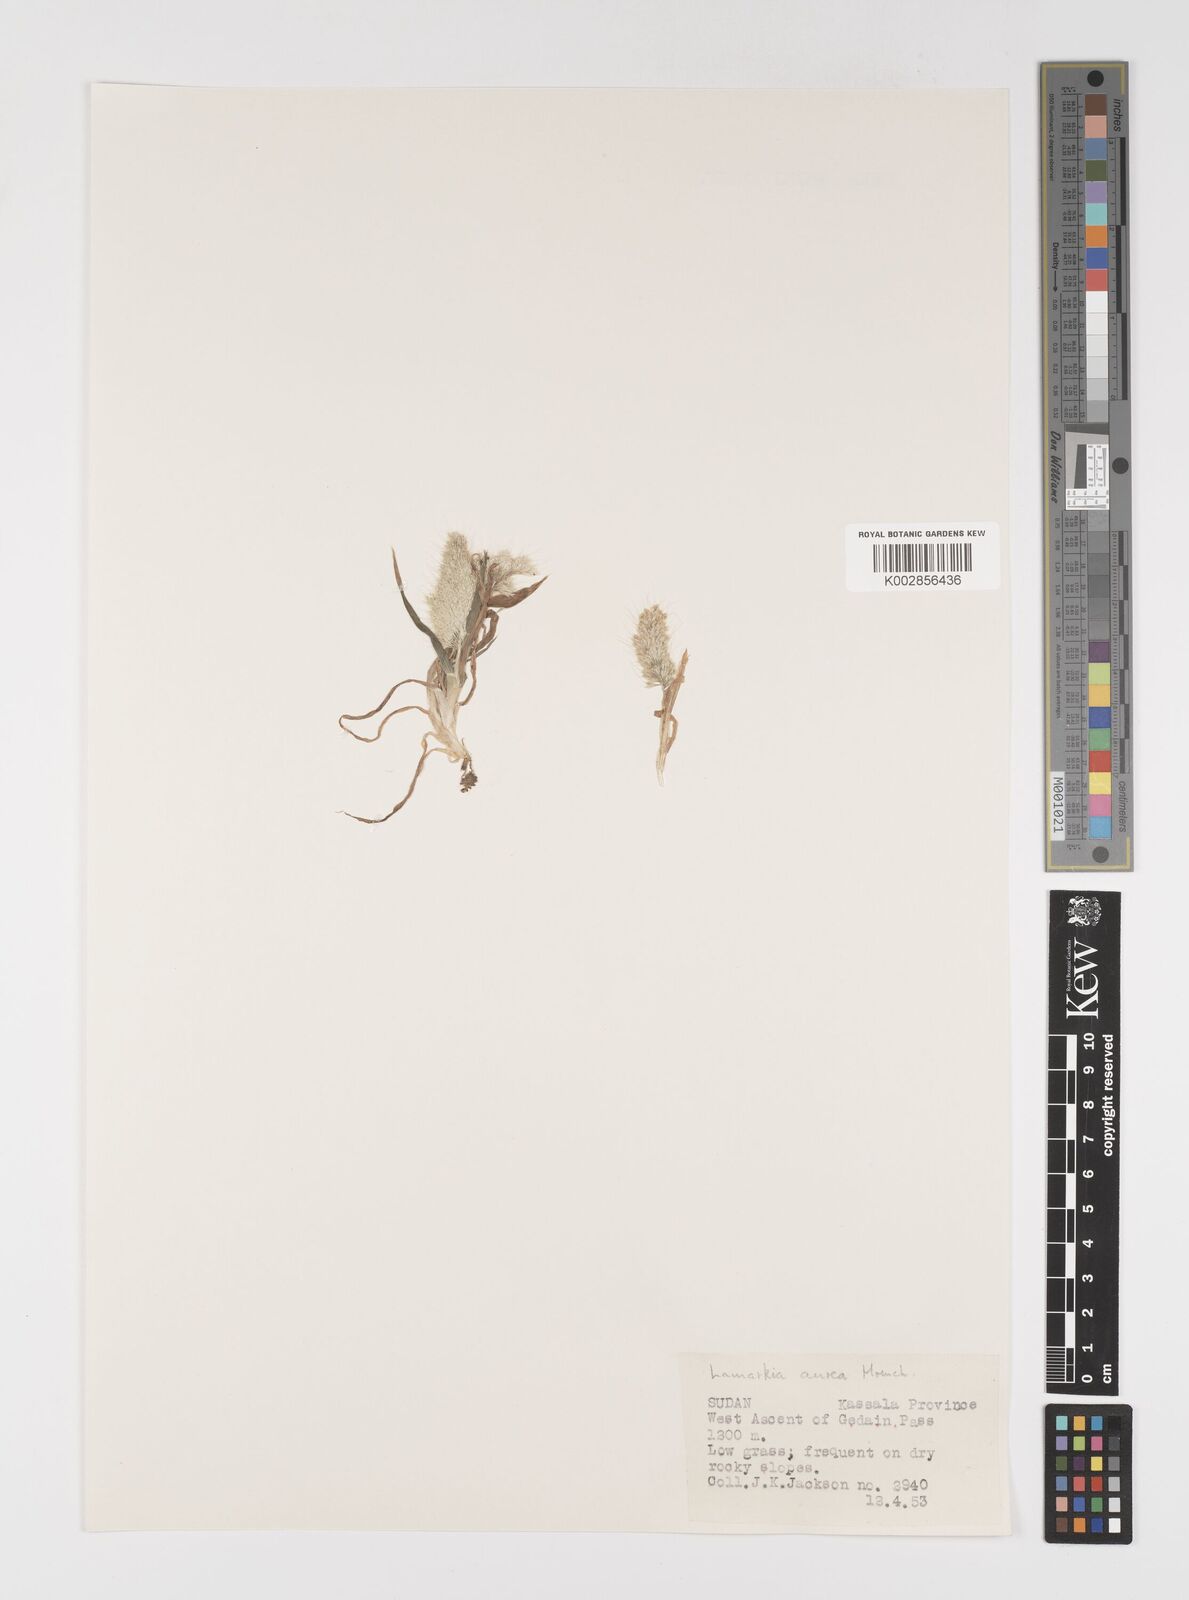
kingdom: Plantae
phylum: Tracheophyta
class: Liliopsida
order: Poales
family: Poaceae
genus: Lamarckia
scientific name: Lamarckia aurea
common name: Golden dog's-tail
